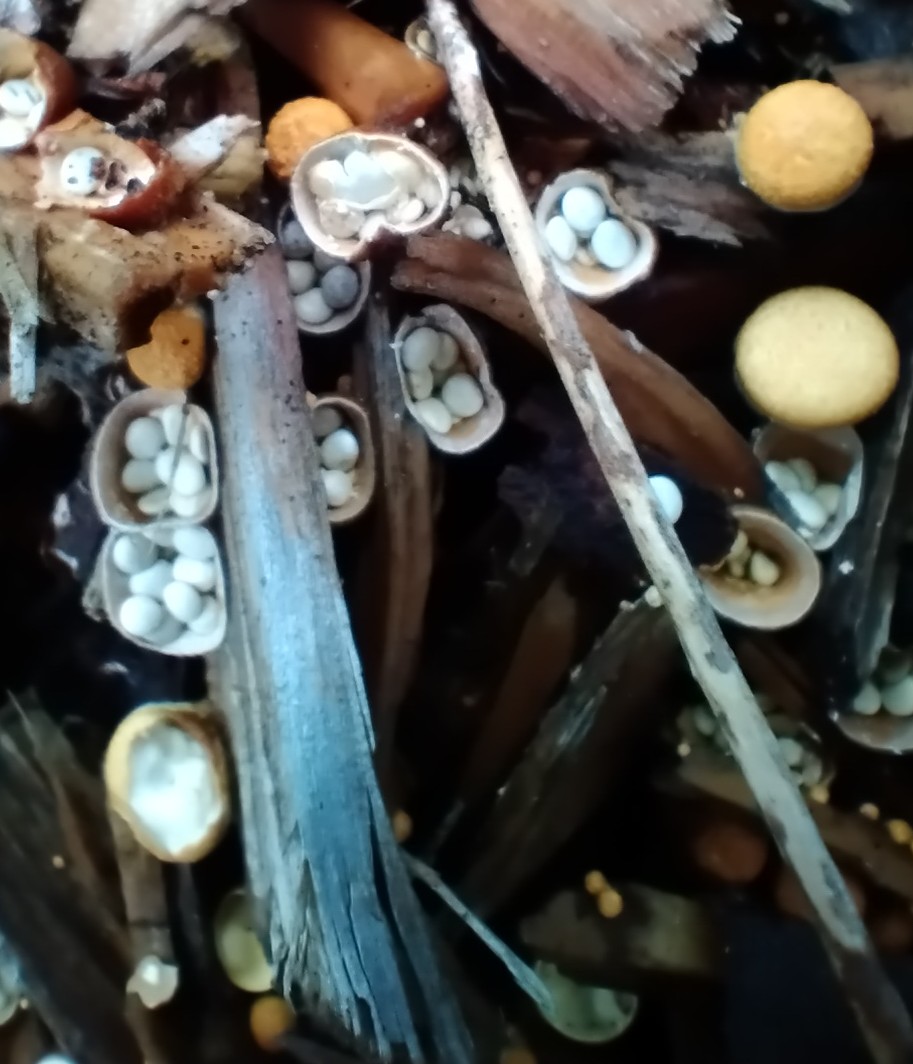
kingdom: Fungi
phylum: Basidiomycota
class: Agaricomycetes
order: Agaricales
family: Nidulariaceae
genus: Crucibulum
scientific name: Crucibulum crucibuliforme
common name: krukkesvamp
